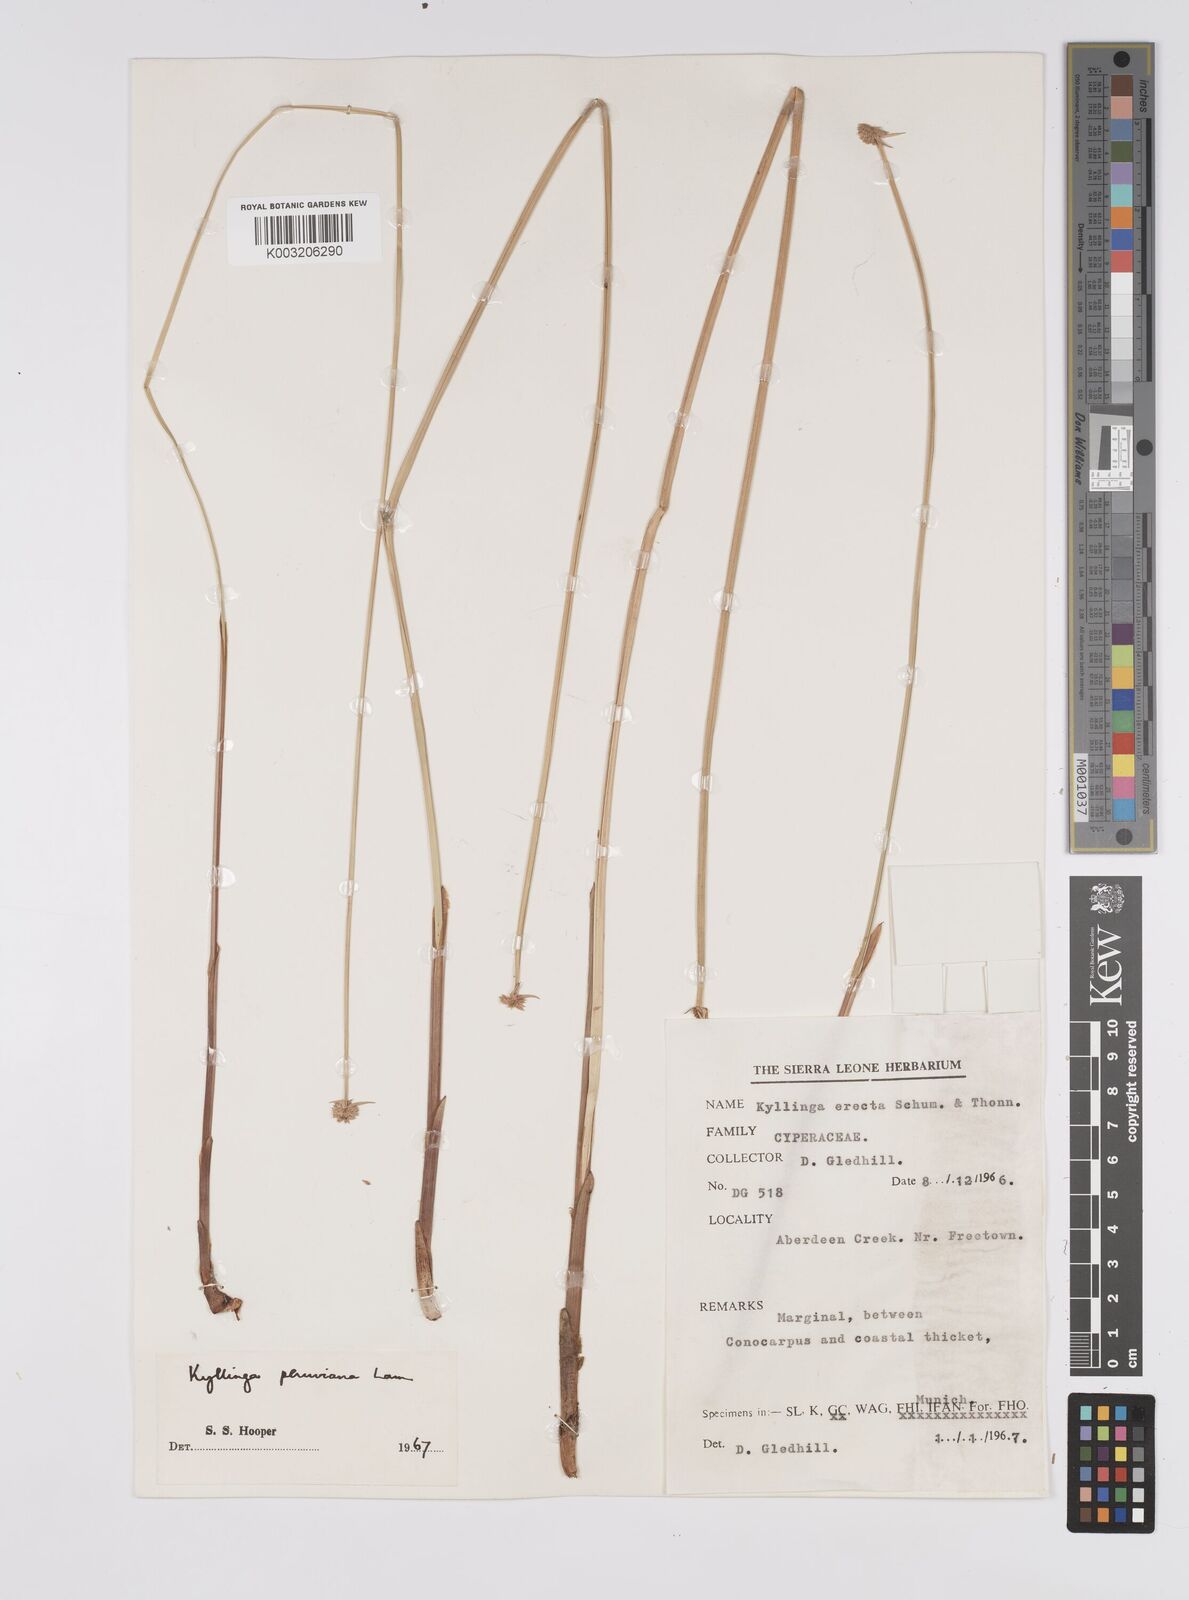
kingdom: Plantae
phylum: Tracheophyta
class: Liliopsida
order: Poales
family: Cyperaceae
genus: Cyperus
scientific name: Cyperus obtusatus
